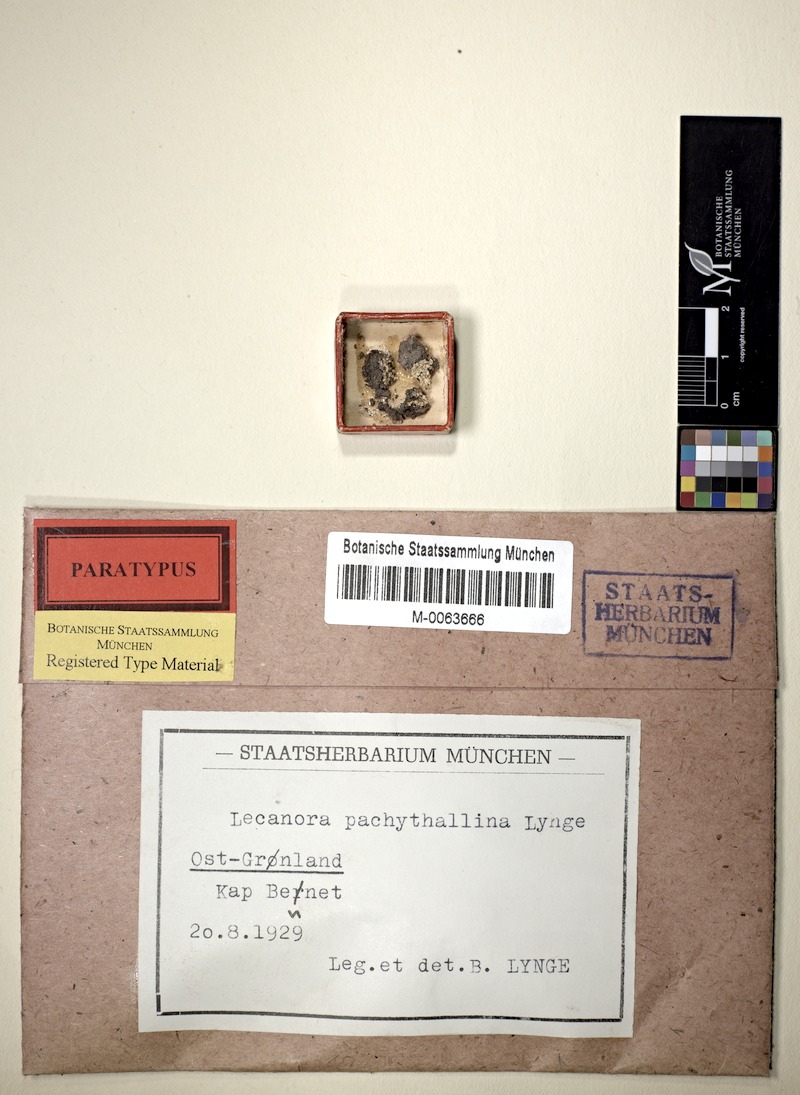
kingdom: Fungi
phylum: Ascomycota
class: Lecanoromycetes
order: Lecanorales
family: Lecanoraceae
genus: Lecanora
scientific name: Lecanora geophila
